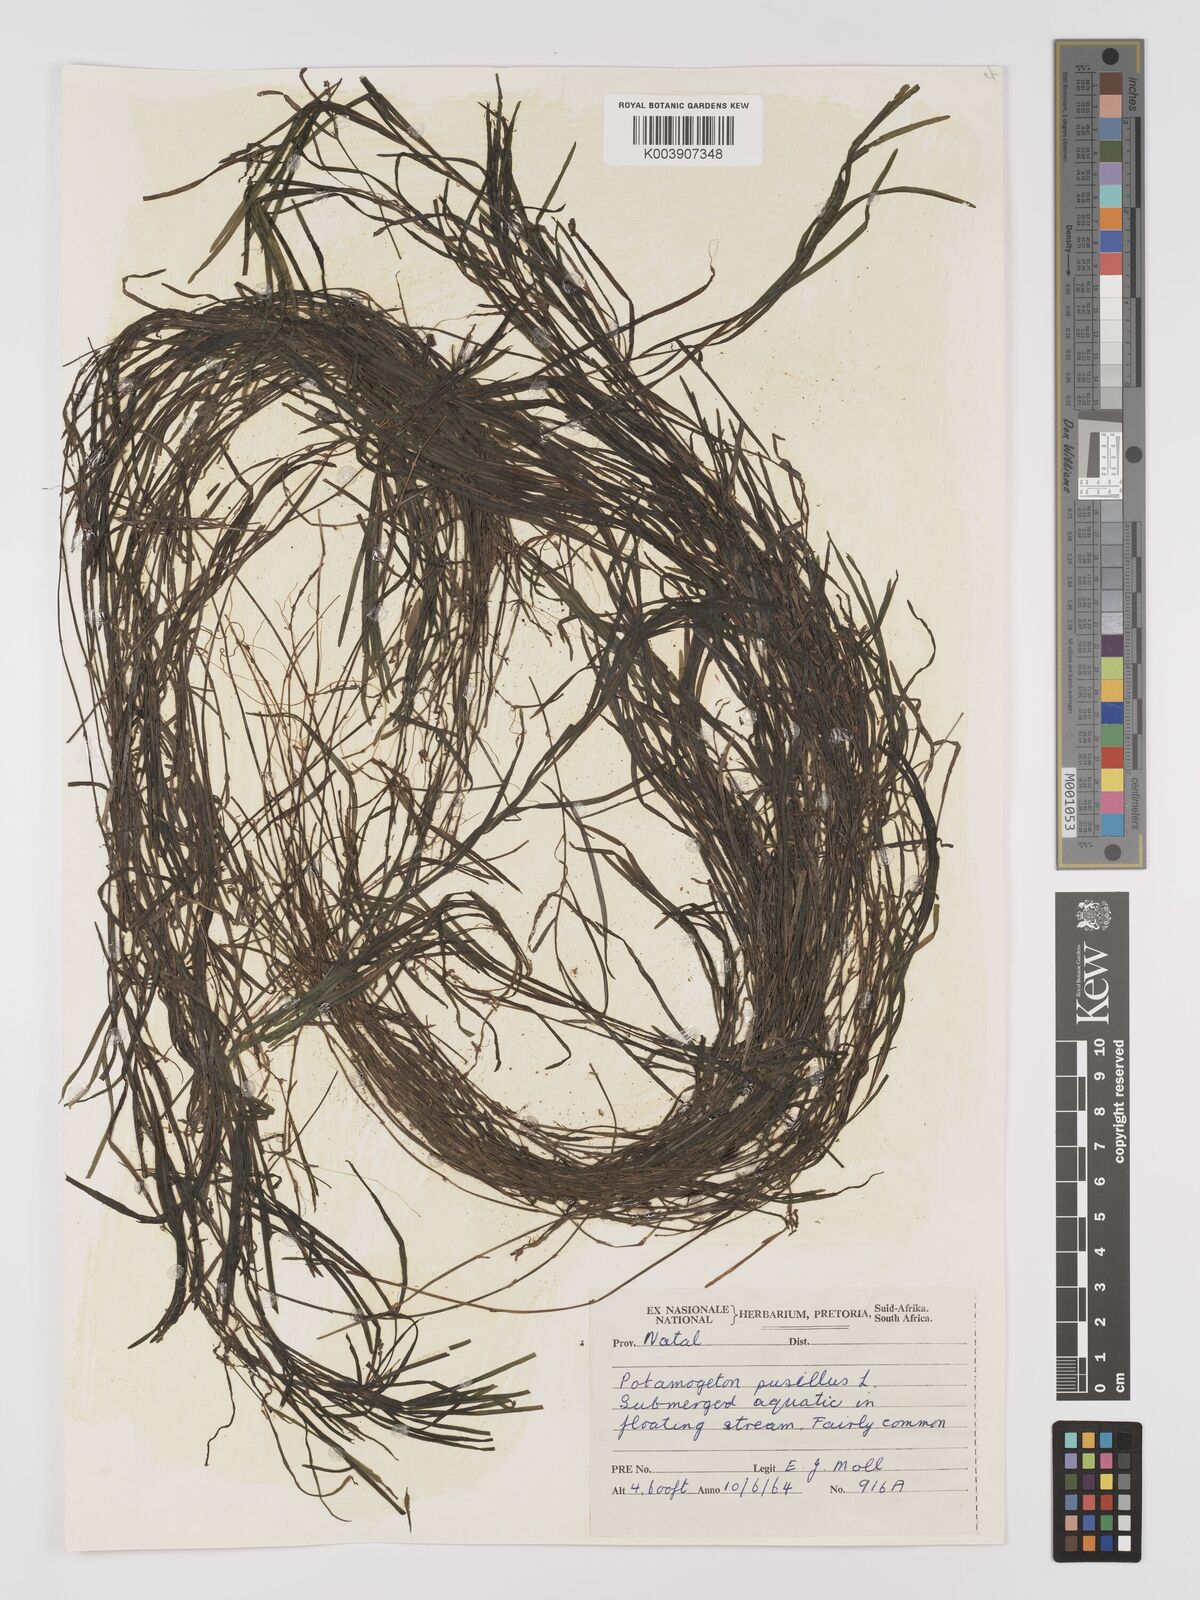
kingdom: Plantae
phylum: Tracheophyta
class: Liliopsida
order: Alismatales
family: Potamogetonaceae
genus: Potamogeton
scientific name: Potamogeton pusillus
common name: Lesser pondweed
